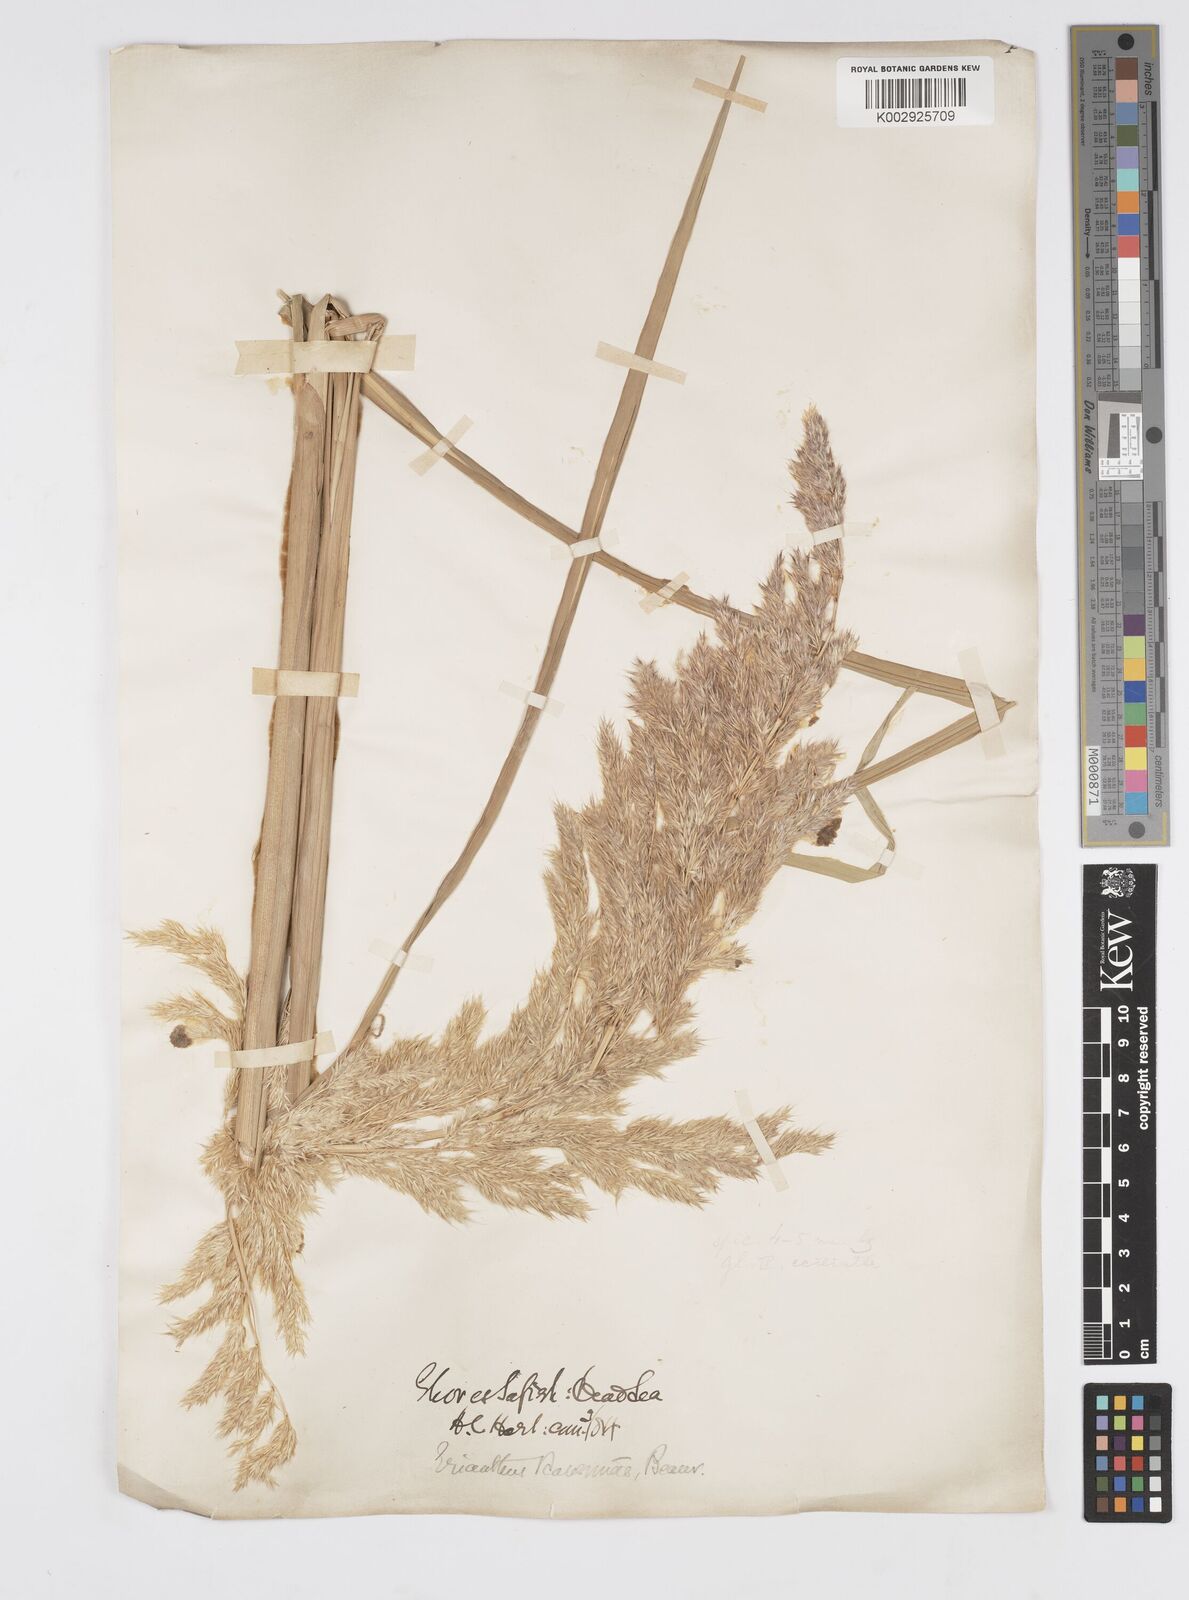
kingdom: Plantae
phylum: Tracheophyta
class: Liliopsida
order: Poales
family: Poaceae
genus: Tripidium
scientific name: Tripidium ravennae
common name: Ravenna grass
